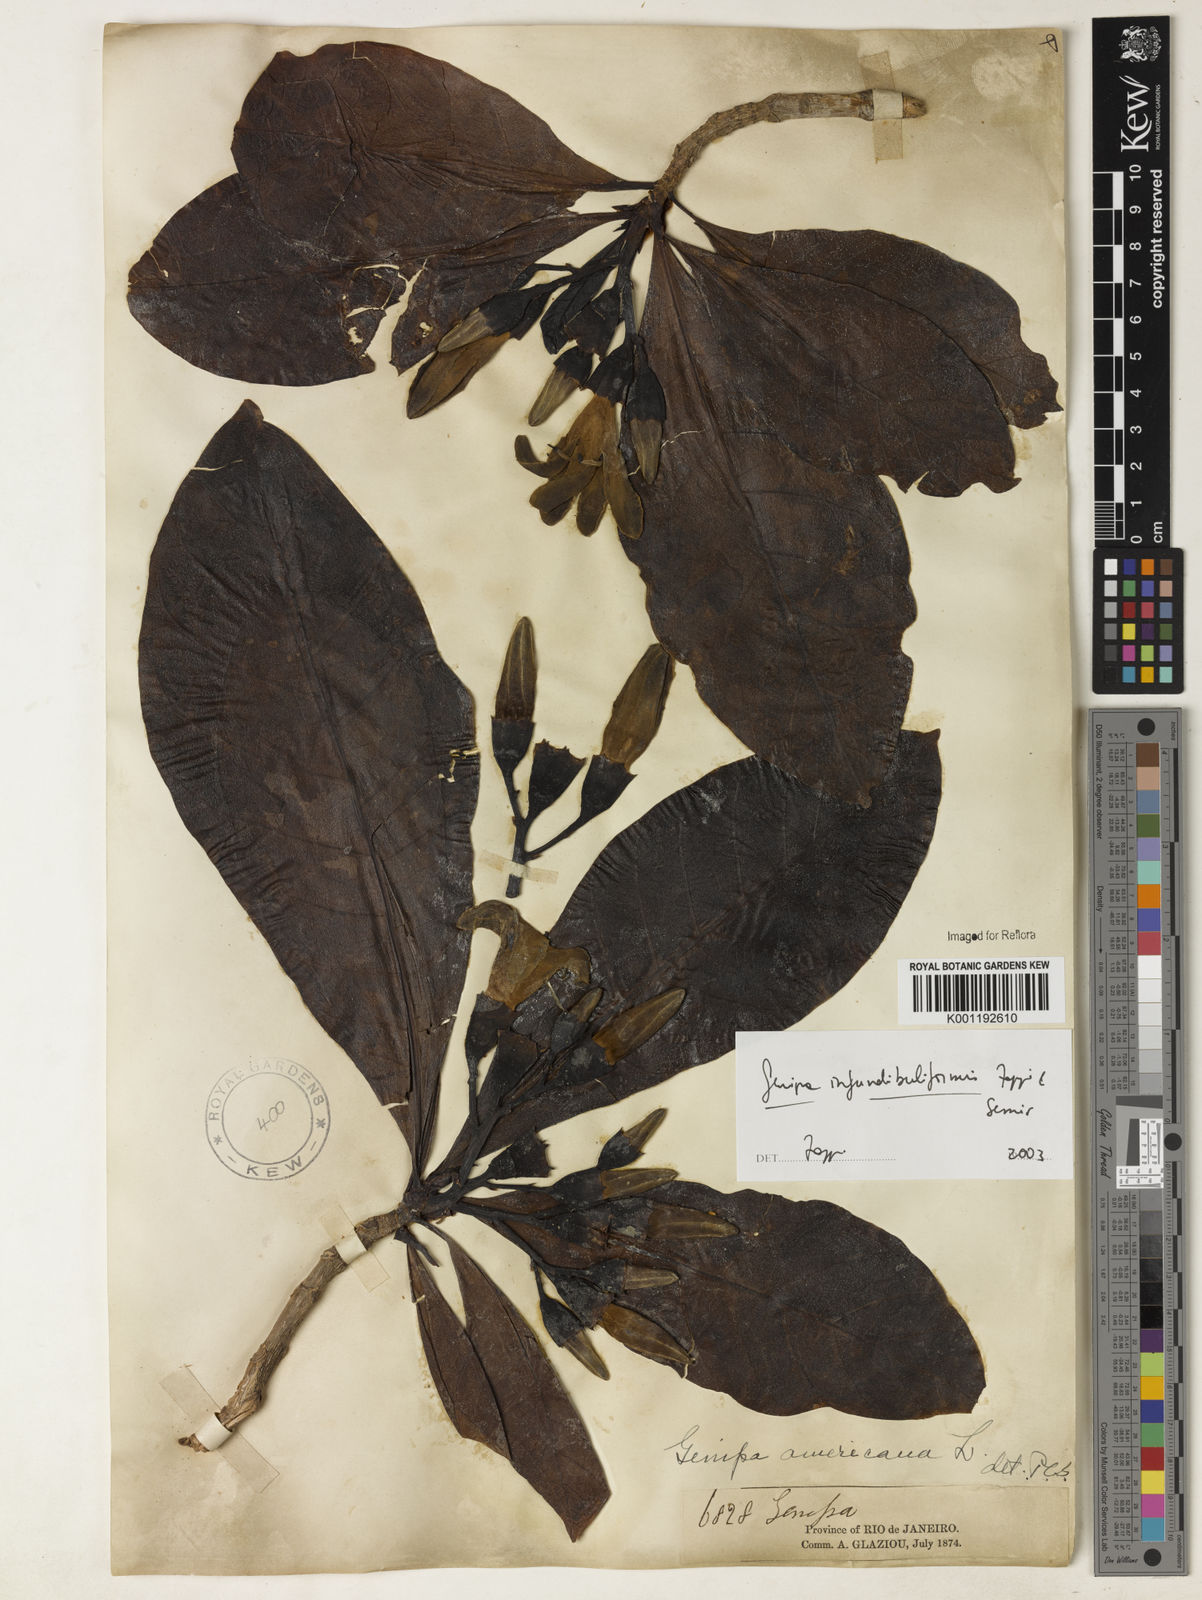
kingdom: Plantae
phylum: Tracheophyta
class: Magnoliopsida
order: Gentianales
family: Rubiaceae
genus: Genipa
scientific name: Genipa
